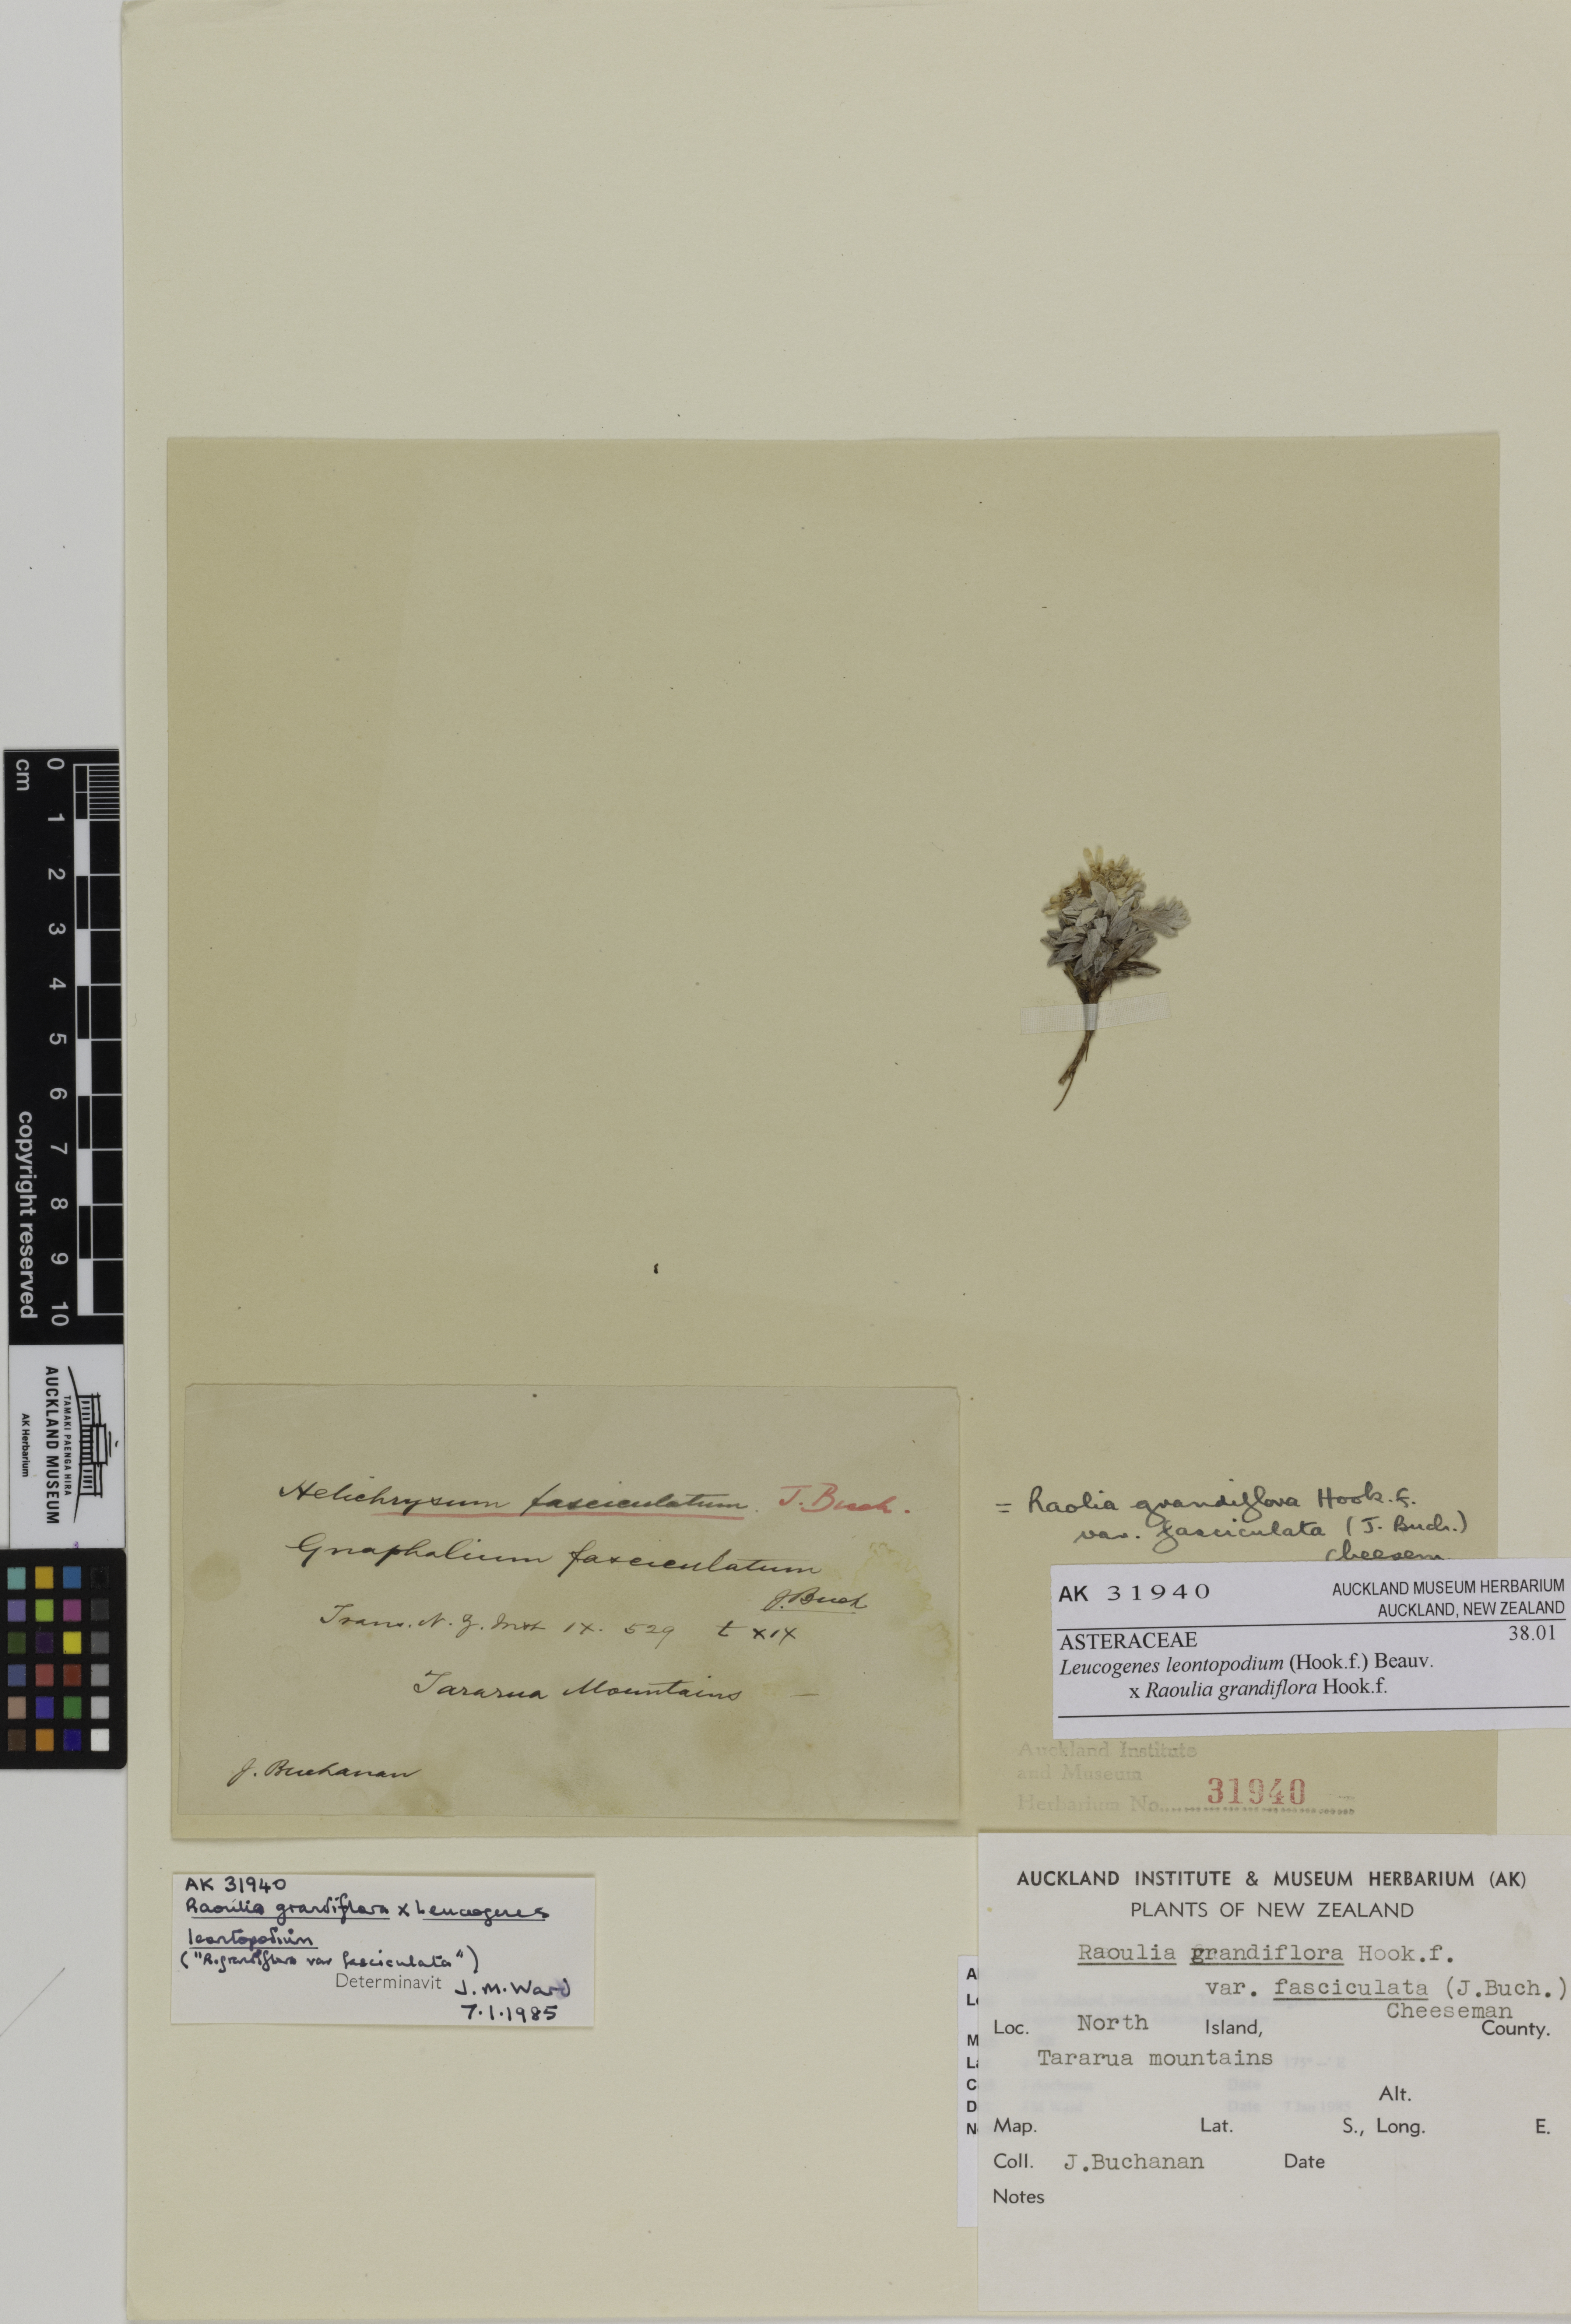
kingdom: Plantae
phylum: Tracheophyta
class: Magnoliopsida
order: Asterales
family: Asteraceae
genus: Leucogenes
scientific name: Leucogenes
